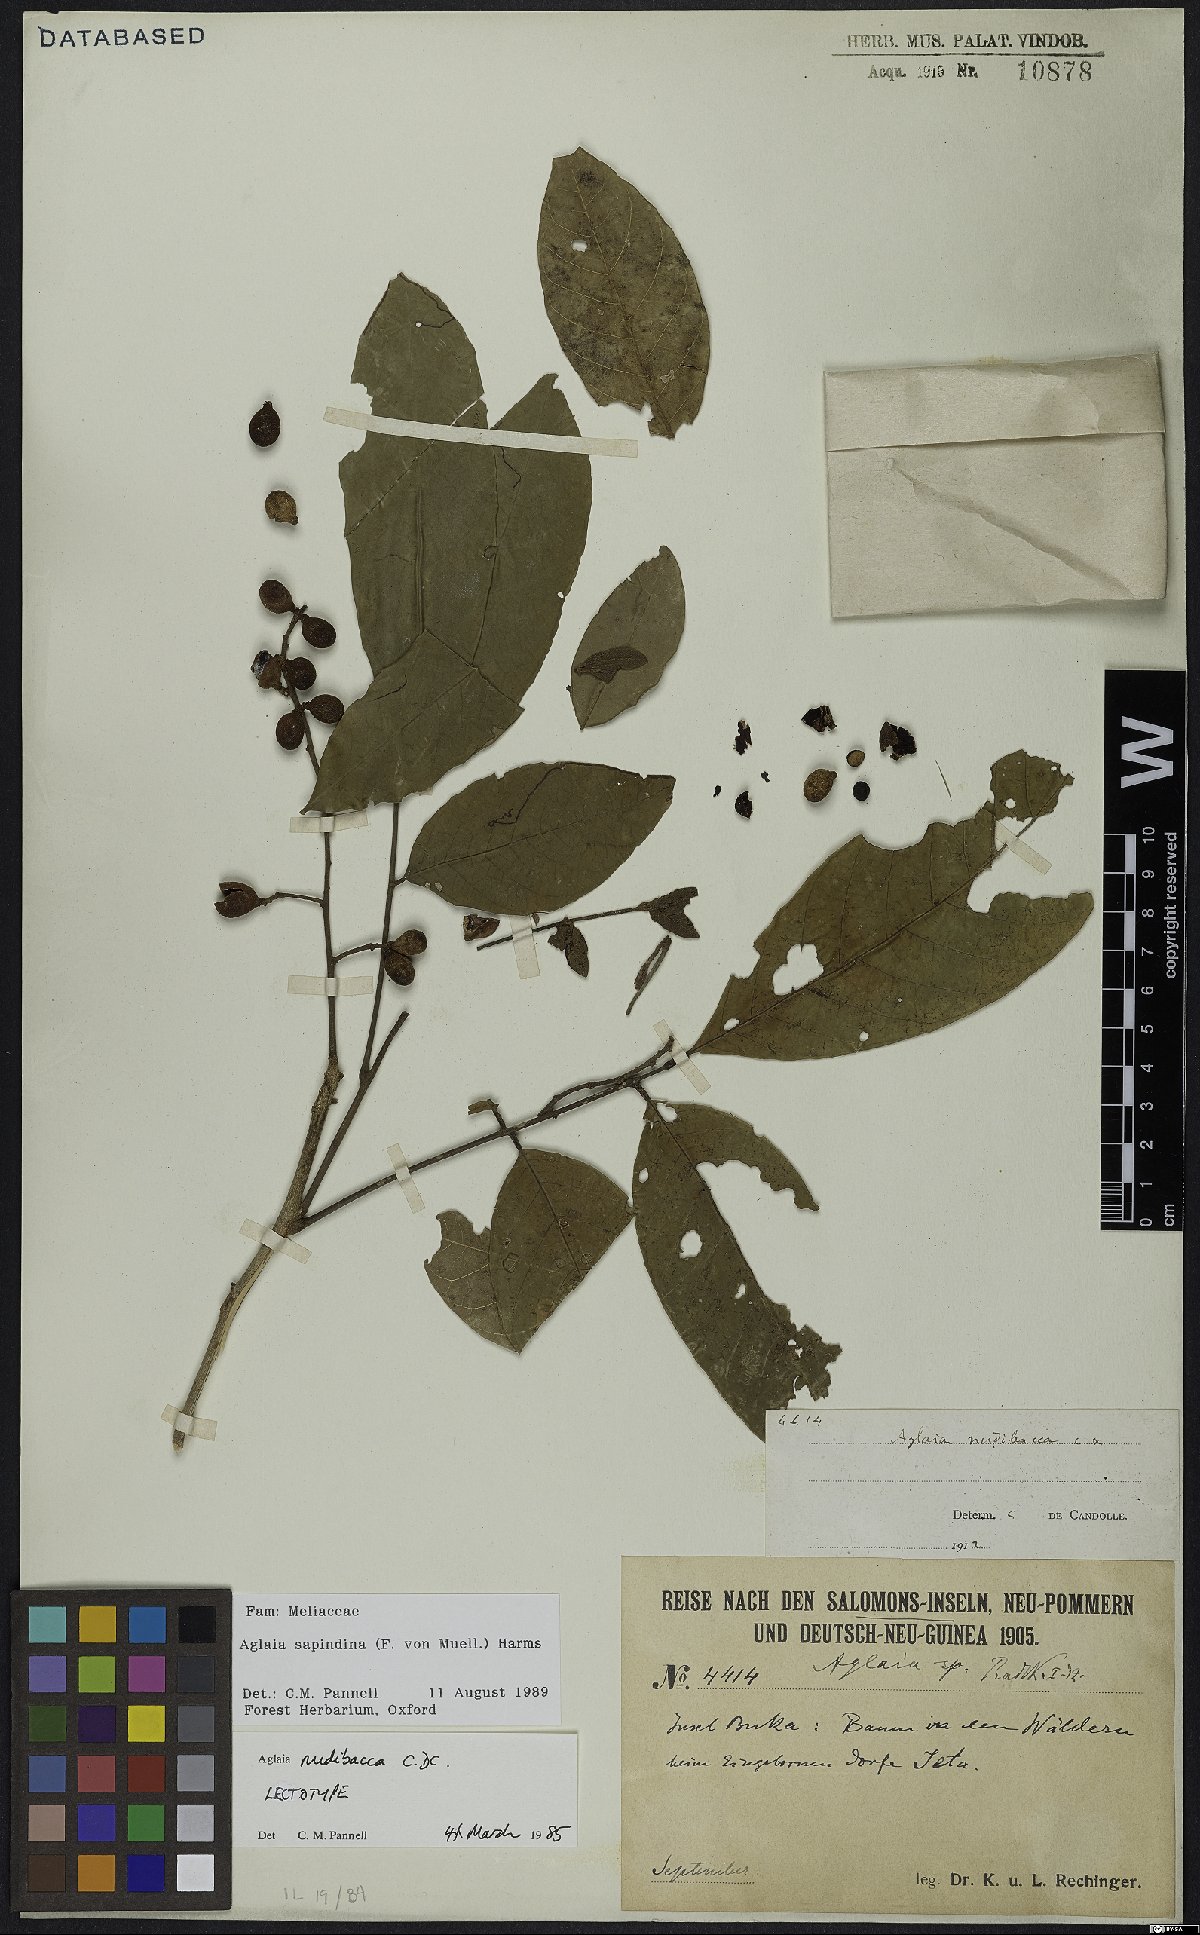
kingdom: Plantae
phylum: Tracheophyta
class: Magnoliopsida
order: Sapindales
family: Meliaceae
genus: Aglaia
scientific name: Aglaia sapindina
